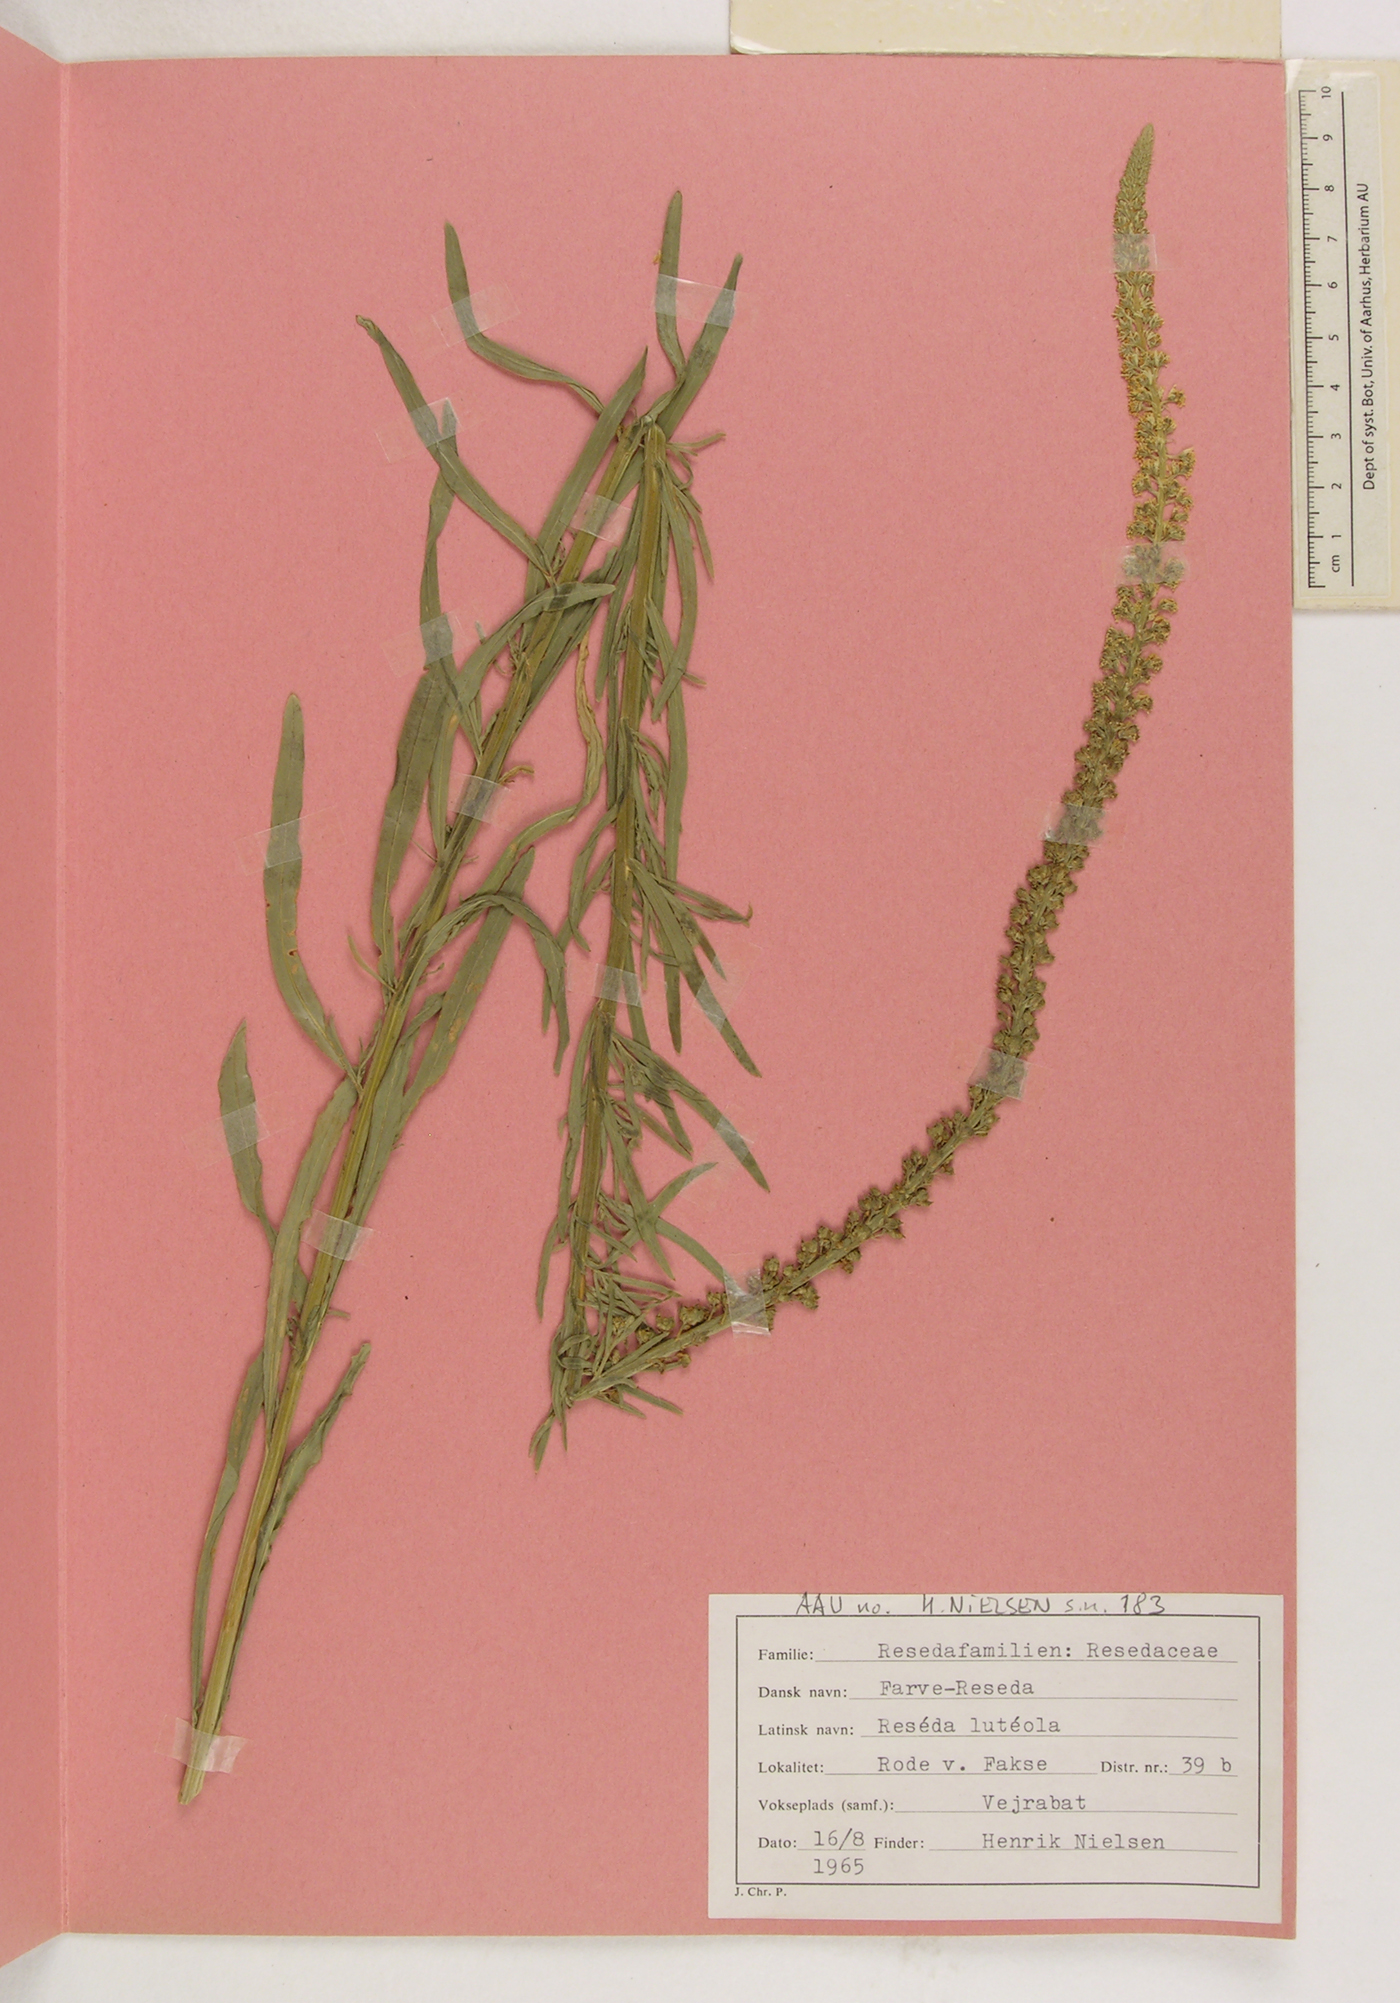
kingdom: Plantae
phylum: Tracheophyta
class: Magnoliopsida
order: Brassicales
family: Resedaceae
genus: Reseda
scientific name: Reseda luteola
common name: Weld
